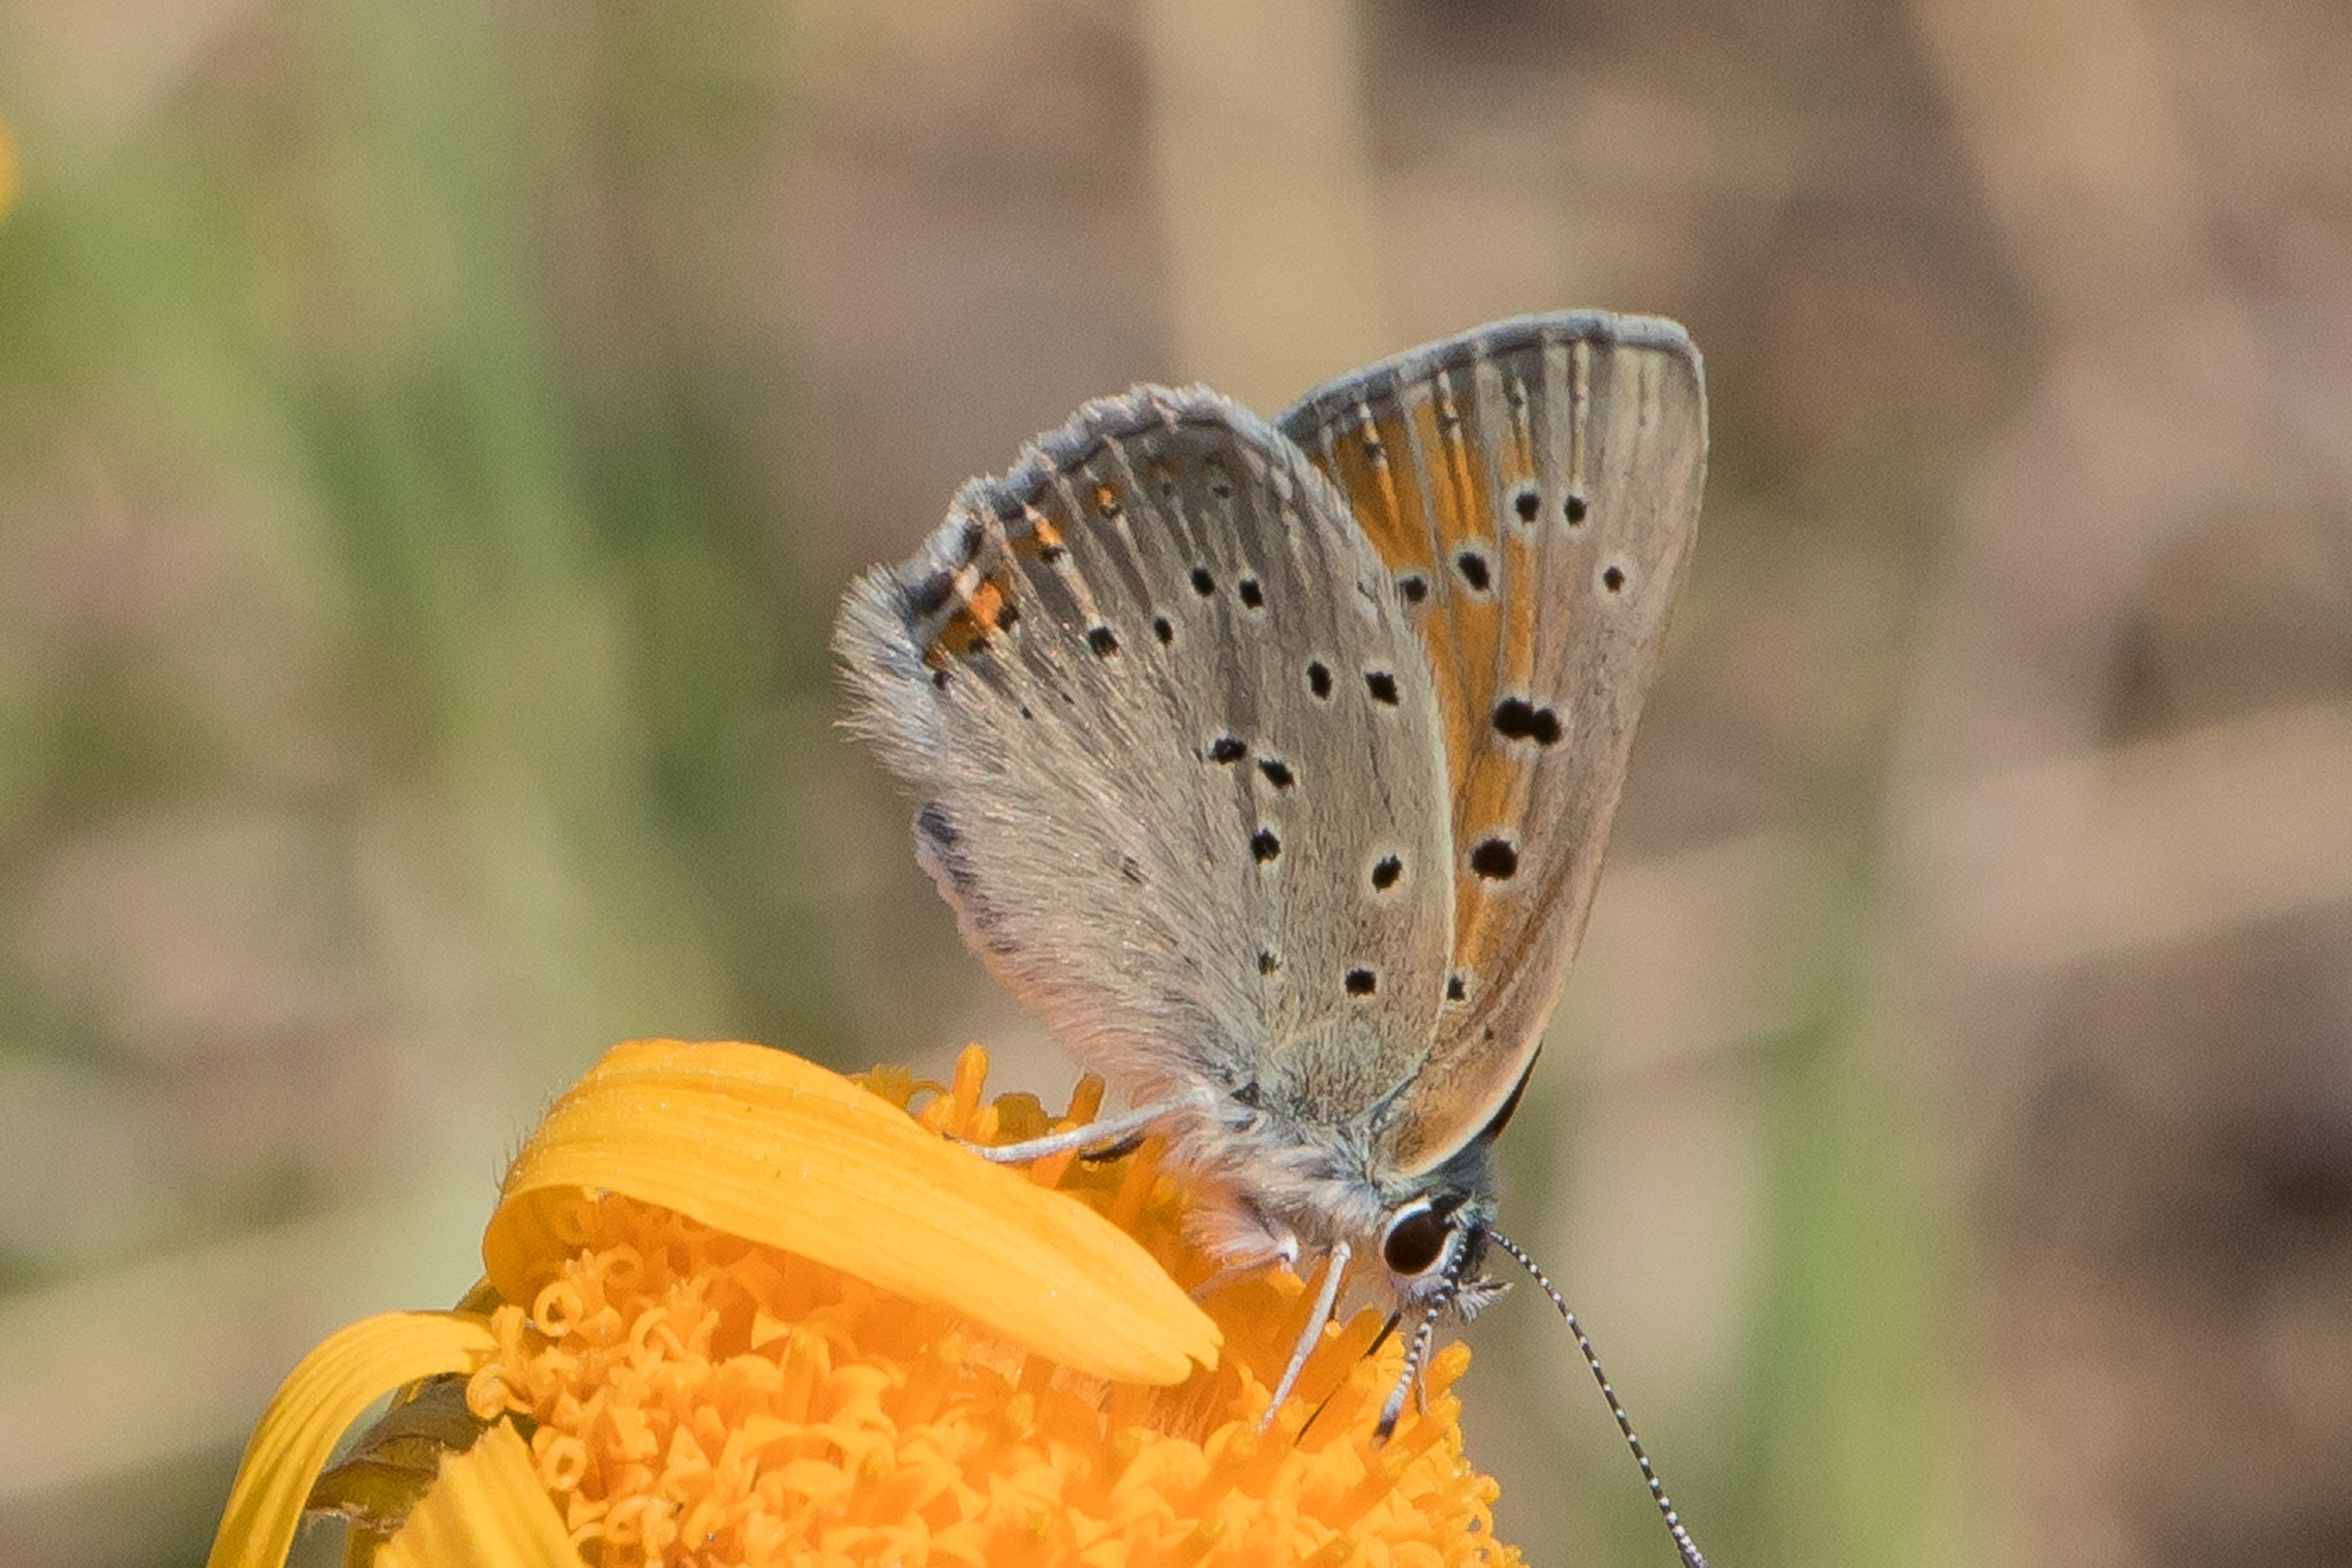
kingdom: Animalia
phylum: Arthropoda
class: Insecta
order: Lepidoptera
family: Lycaenidae
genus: Lycaena
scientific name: Lycaena phlaeas
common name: Lille ildfugl
